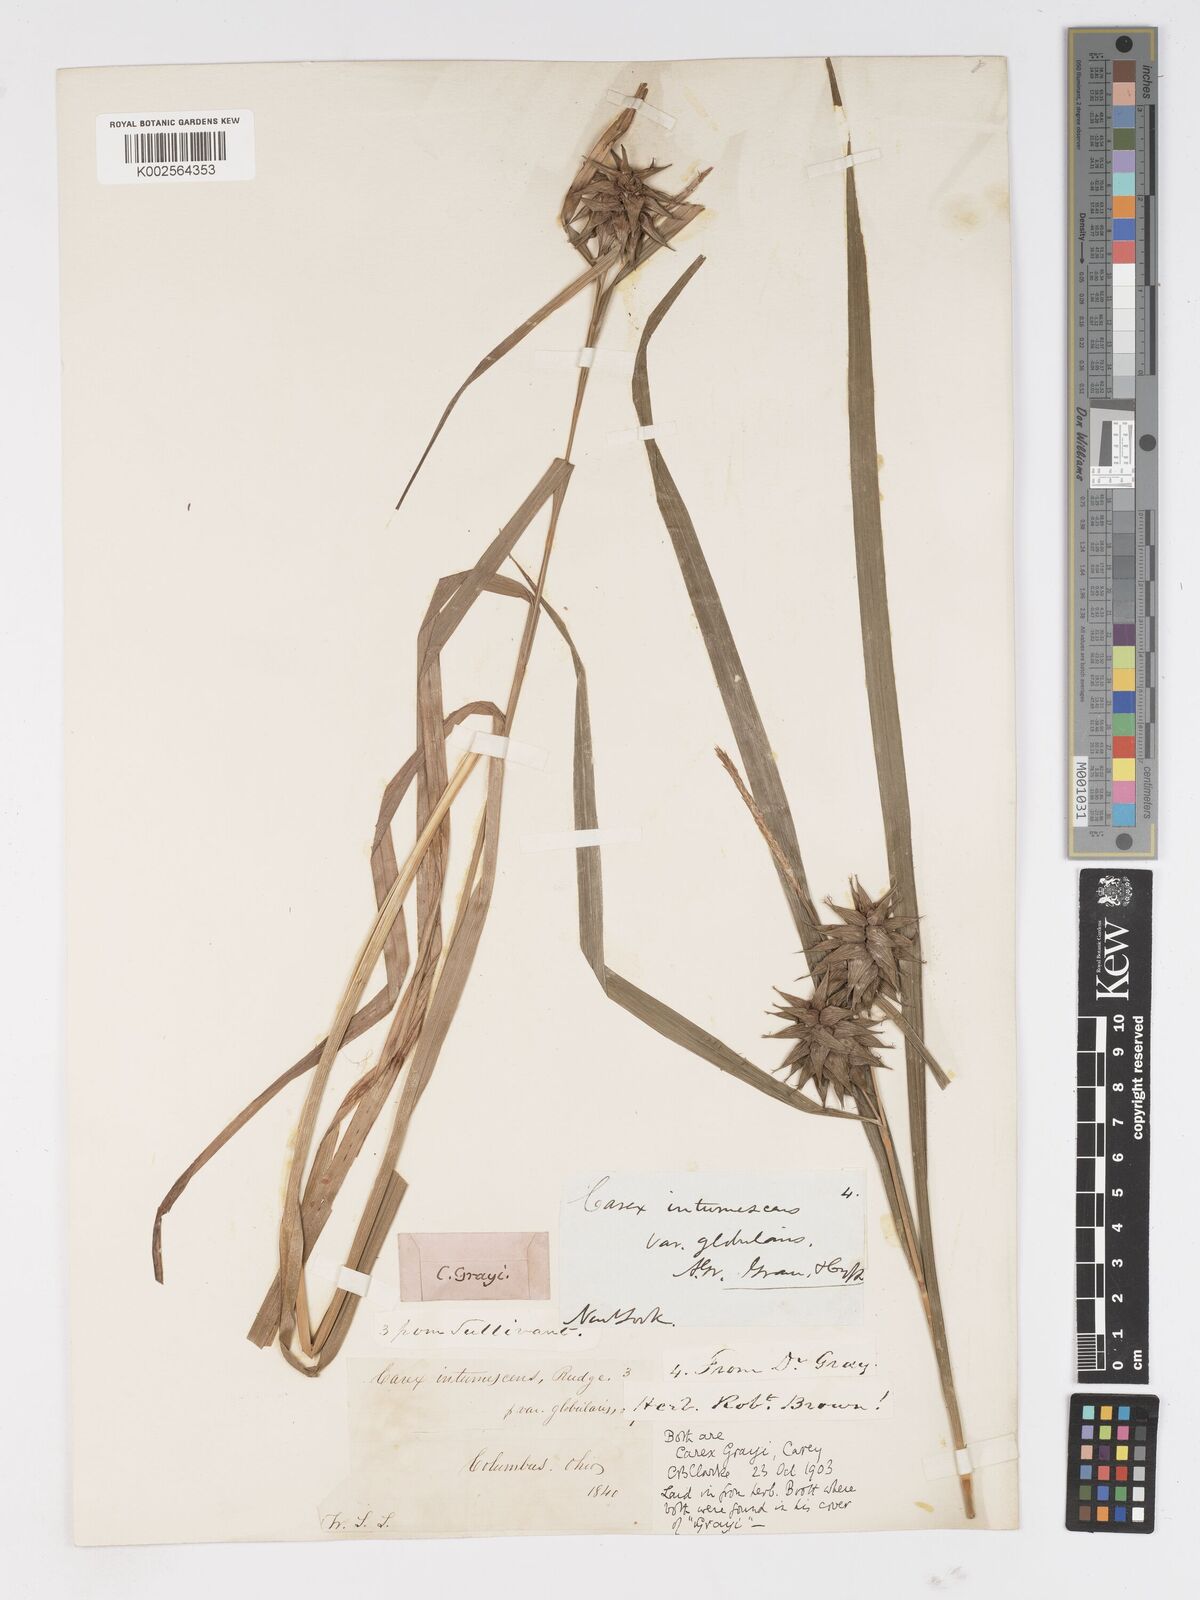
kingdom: Plantae
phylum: Tracheophyta
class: Liliopsida
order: Poales
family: Cyperaceae
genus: Carex
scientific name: Carex grayi
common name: Asa gray's sedge
